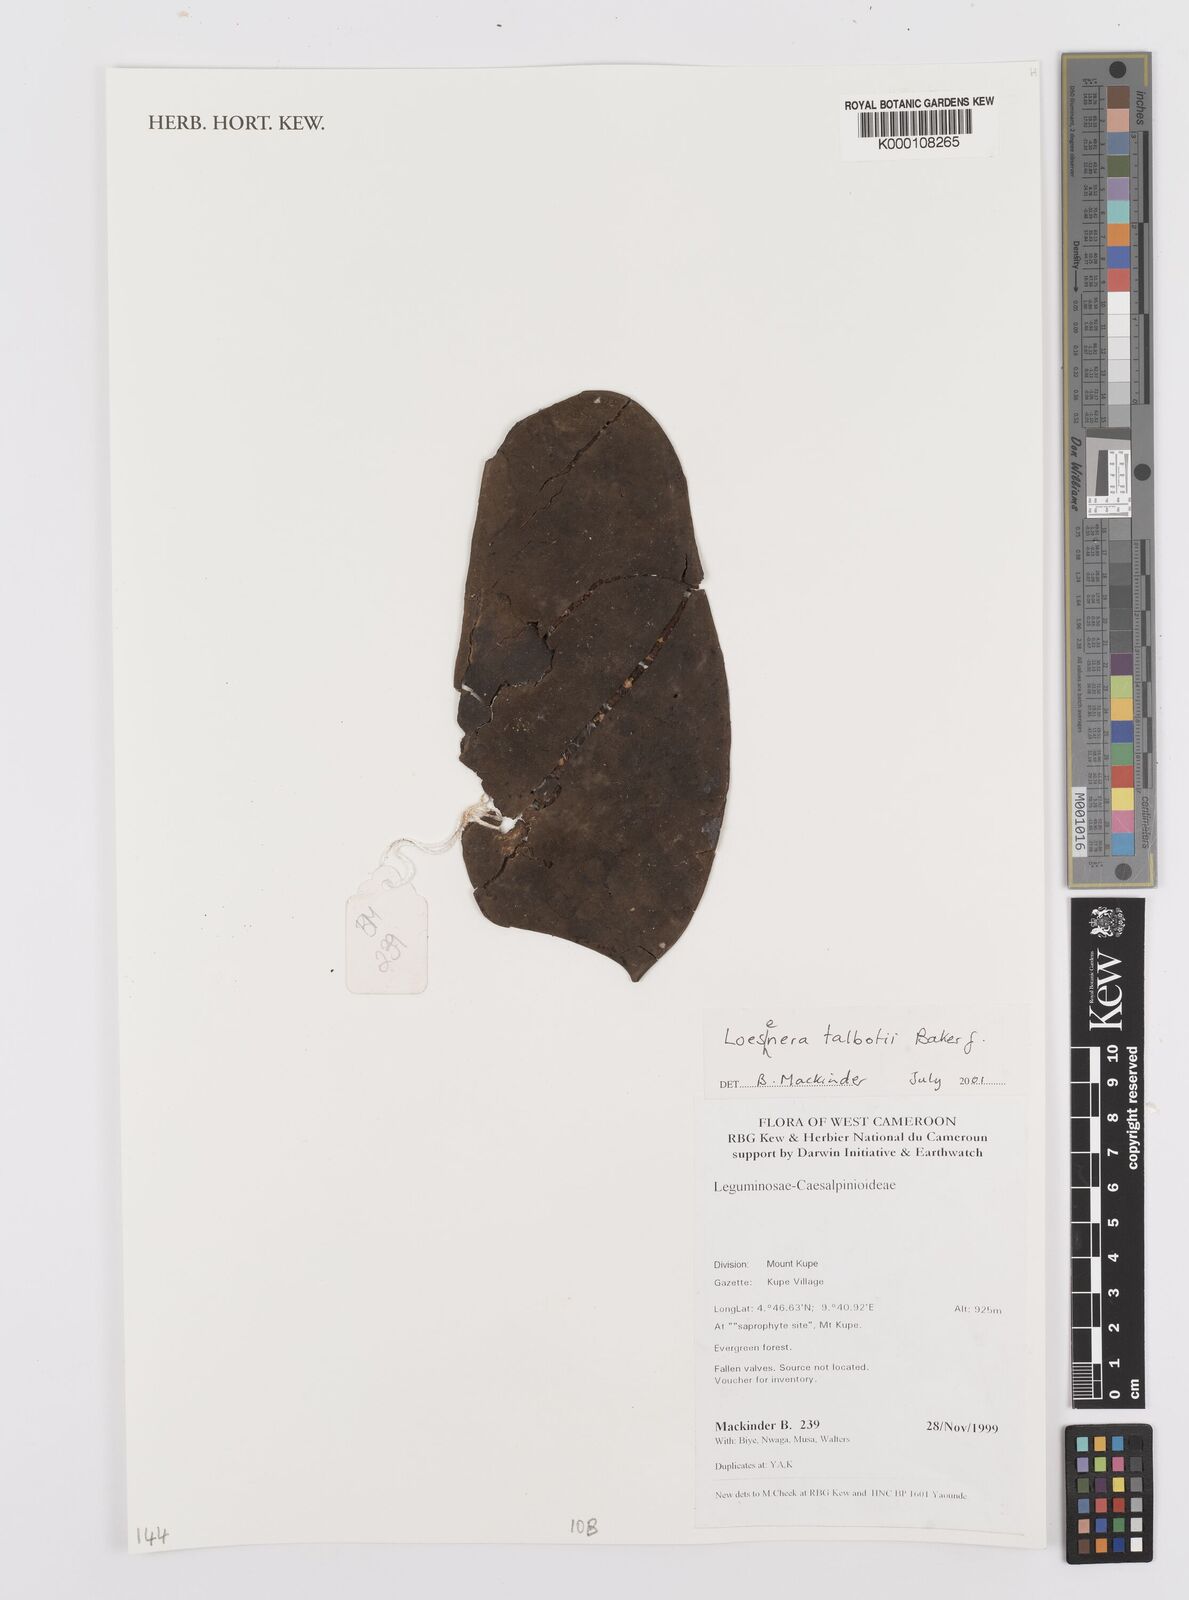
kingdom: Plantae
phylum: Tracheophyta
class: Magnoliopsida
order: Fabales
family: Fabaceae
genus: Loesenera
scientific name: Loesenera talbotii
